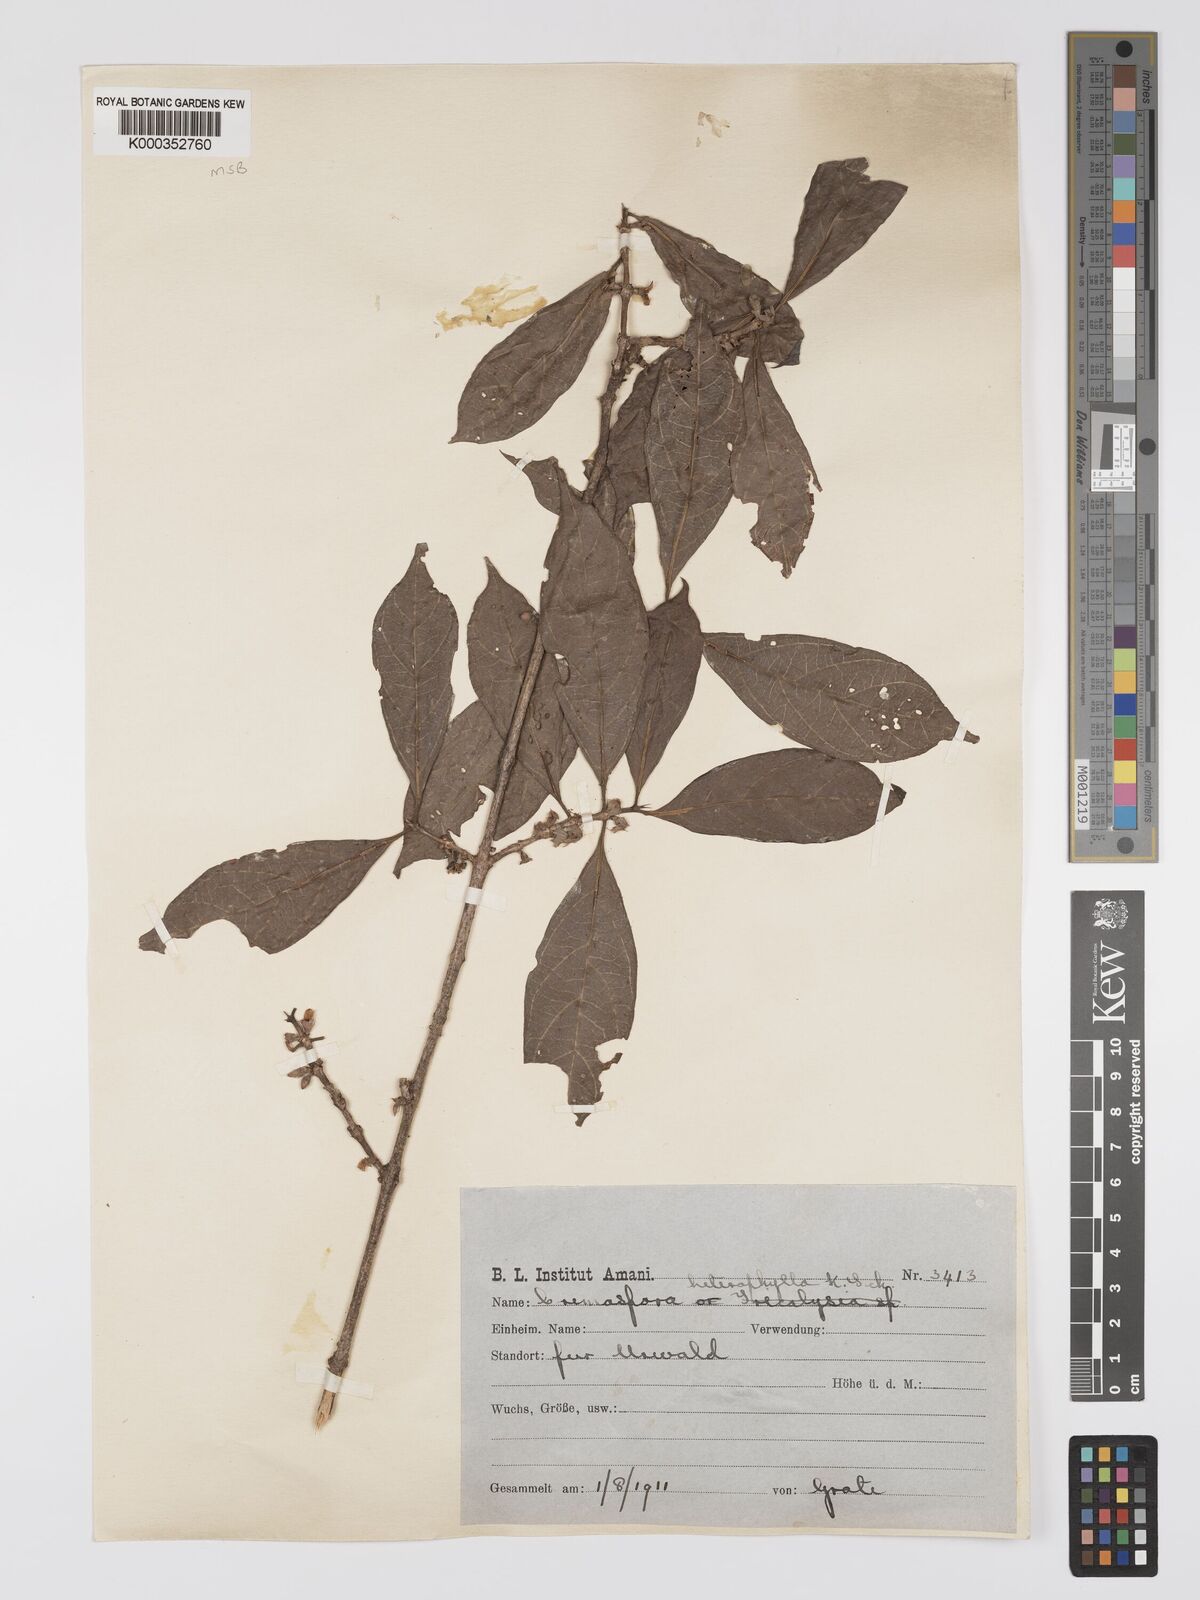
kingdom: Plantae
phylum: Tracheophyta
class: Magnoliopsida
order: Gentianales
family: Rubiaceae
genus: Sericanthe
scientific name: Sericanthe odoratissima
